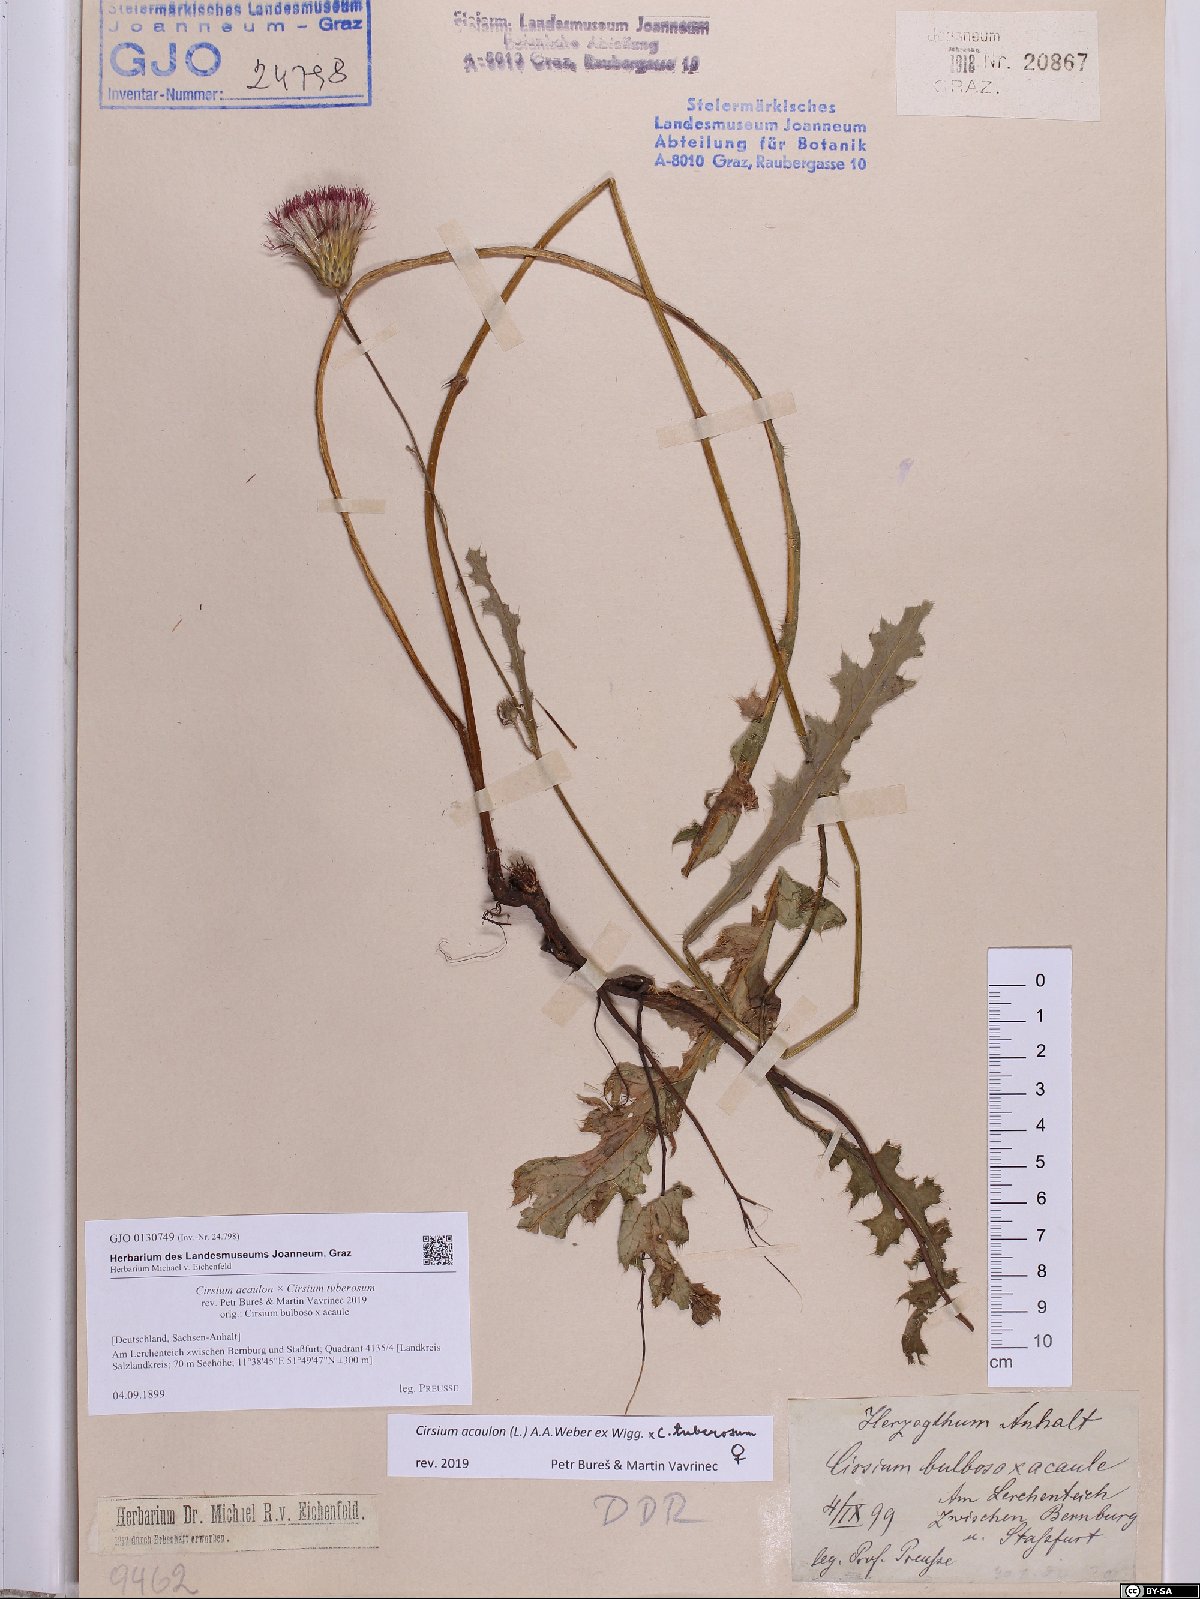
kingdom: Plantae
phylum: Tracheophyta
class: Magnoliopsida
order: Asterales
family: Asteraceae
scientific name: Asteraceae
